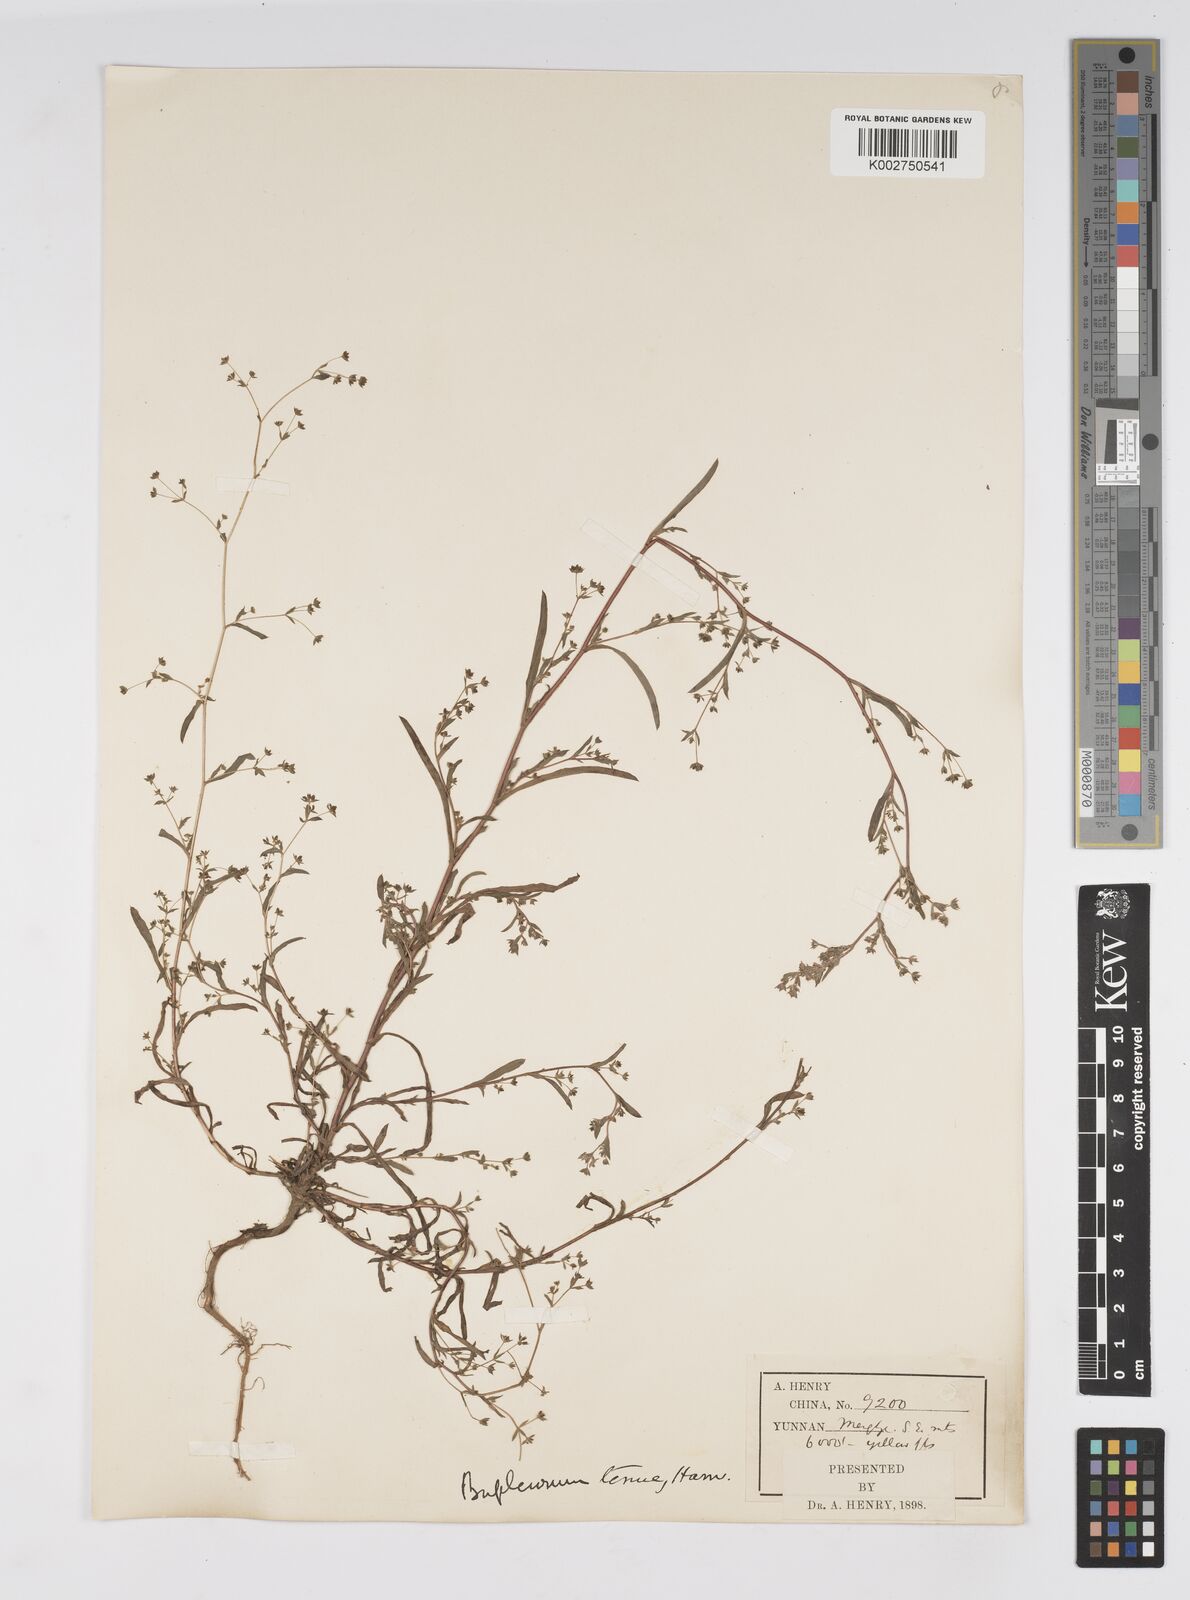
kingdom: Plantae
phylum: Tracheophyta
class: Magnoliopsida
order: Apiales
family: Apiaceae
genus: Bupleurum
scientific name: Bupleurum hamiltonii
